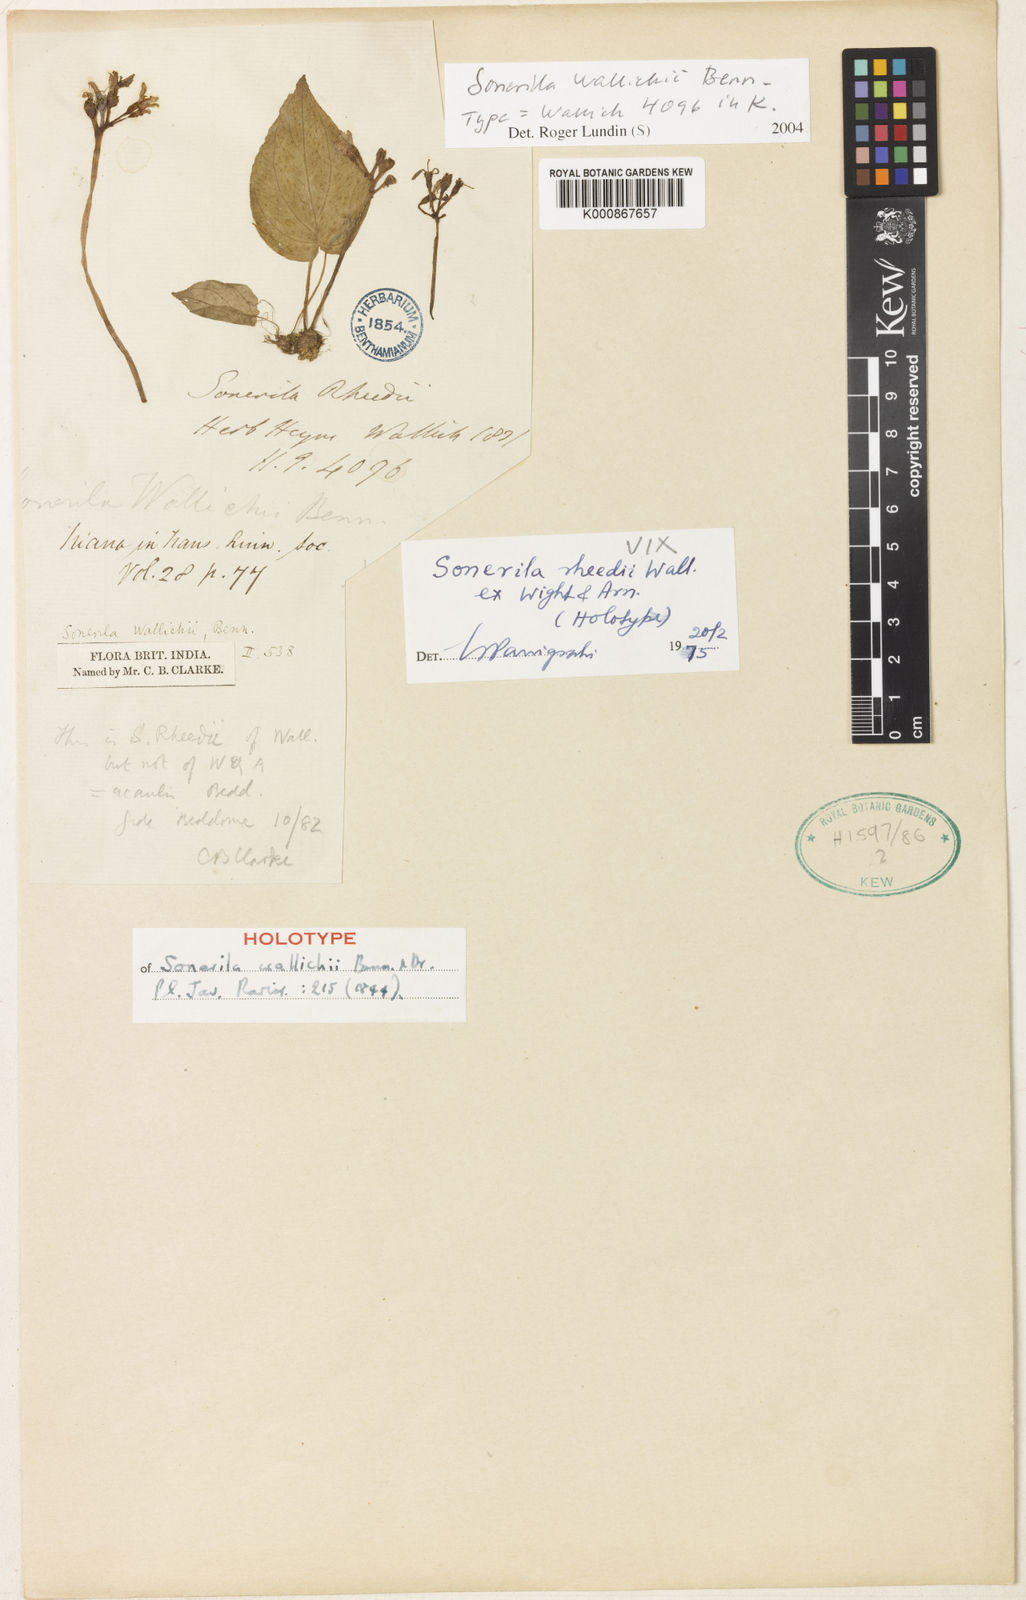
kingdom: Plantae
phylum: Tracheophyta
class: Magnoliopsida
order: Myrtales
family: Melastomataceae
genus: Sonerila
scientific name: Sonerila wallichii
